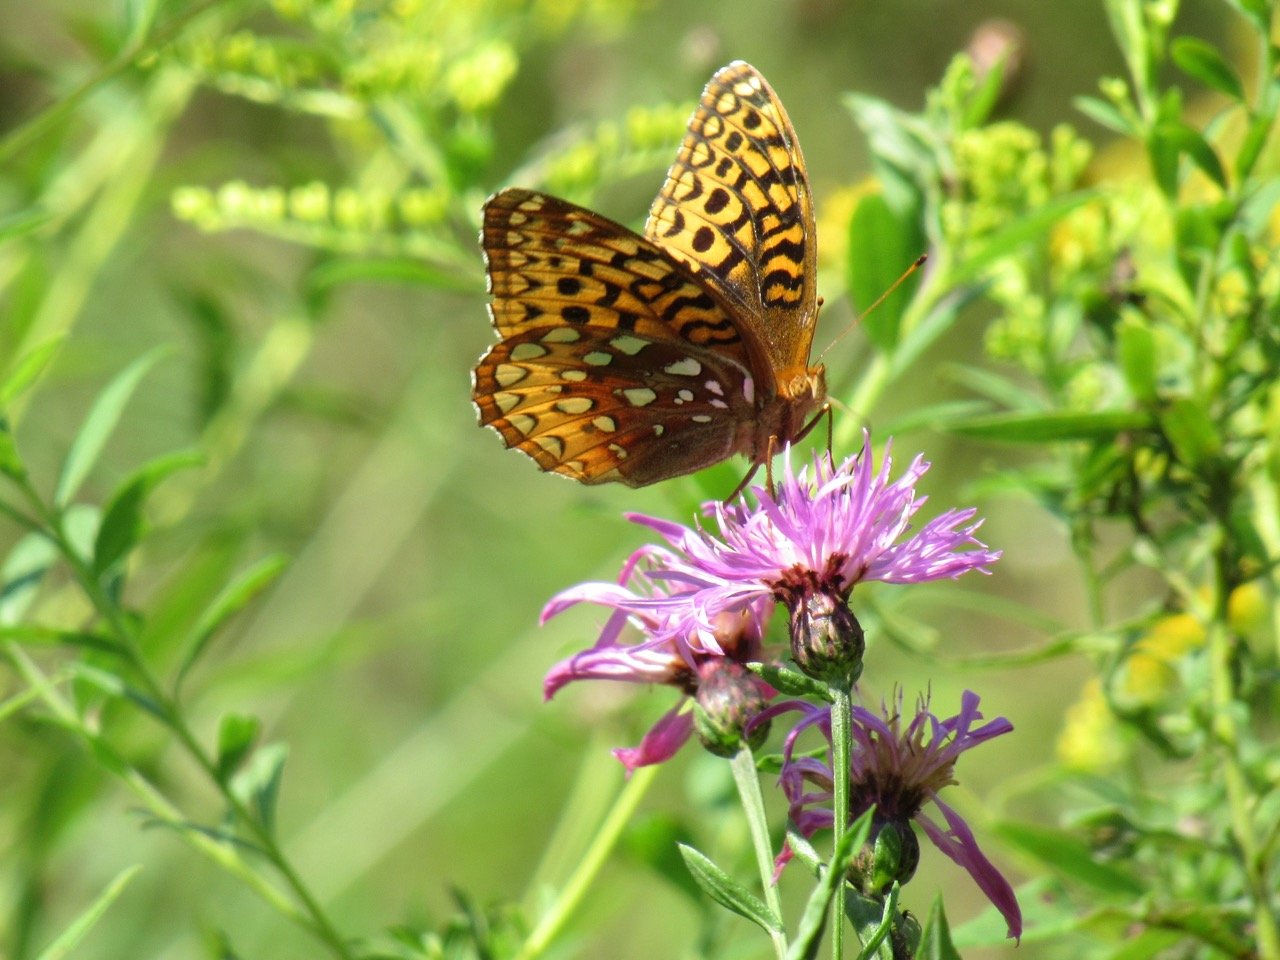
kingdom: Animalia
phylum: Arthropoda
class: Insecta
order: Lepidoptera
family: Nymphalidae
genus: Speyeria
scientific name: Speyeria cybele
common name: Great Spangled Fritillary
